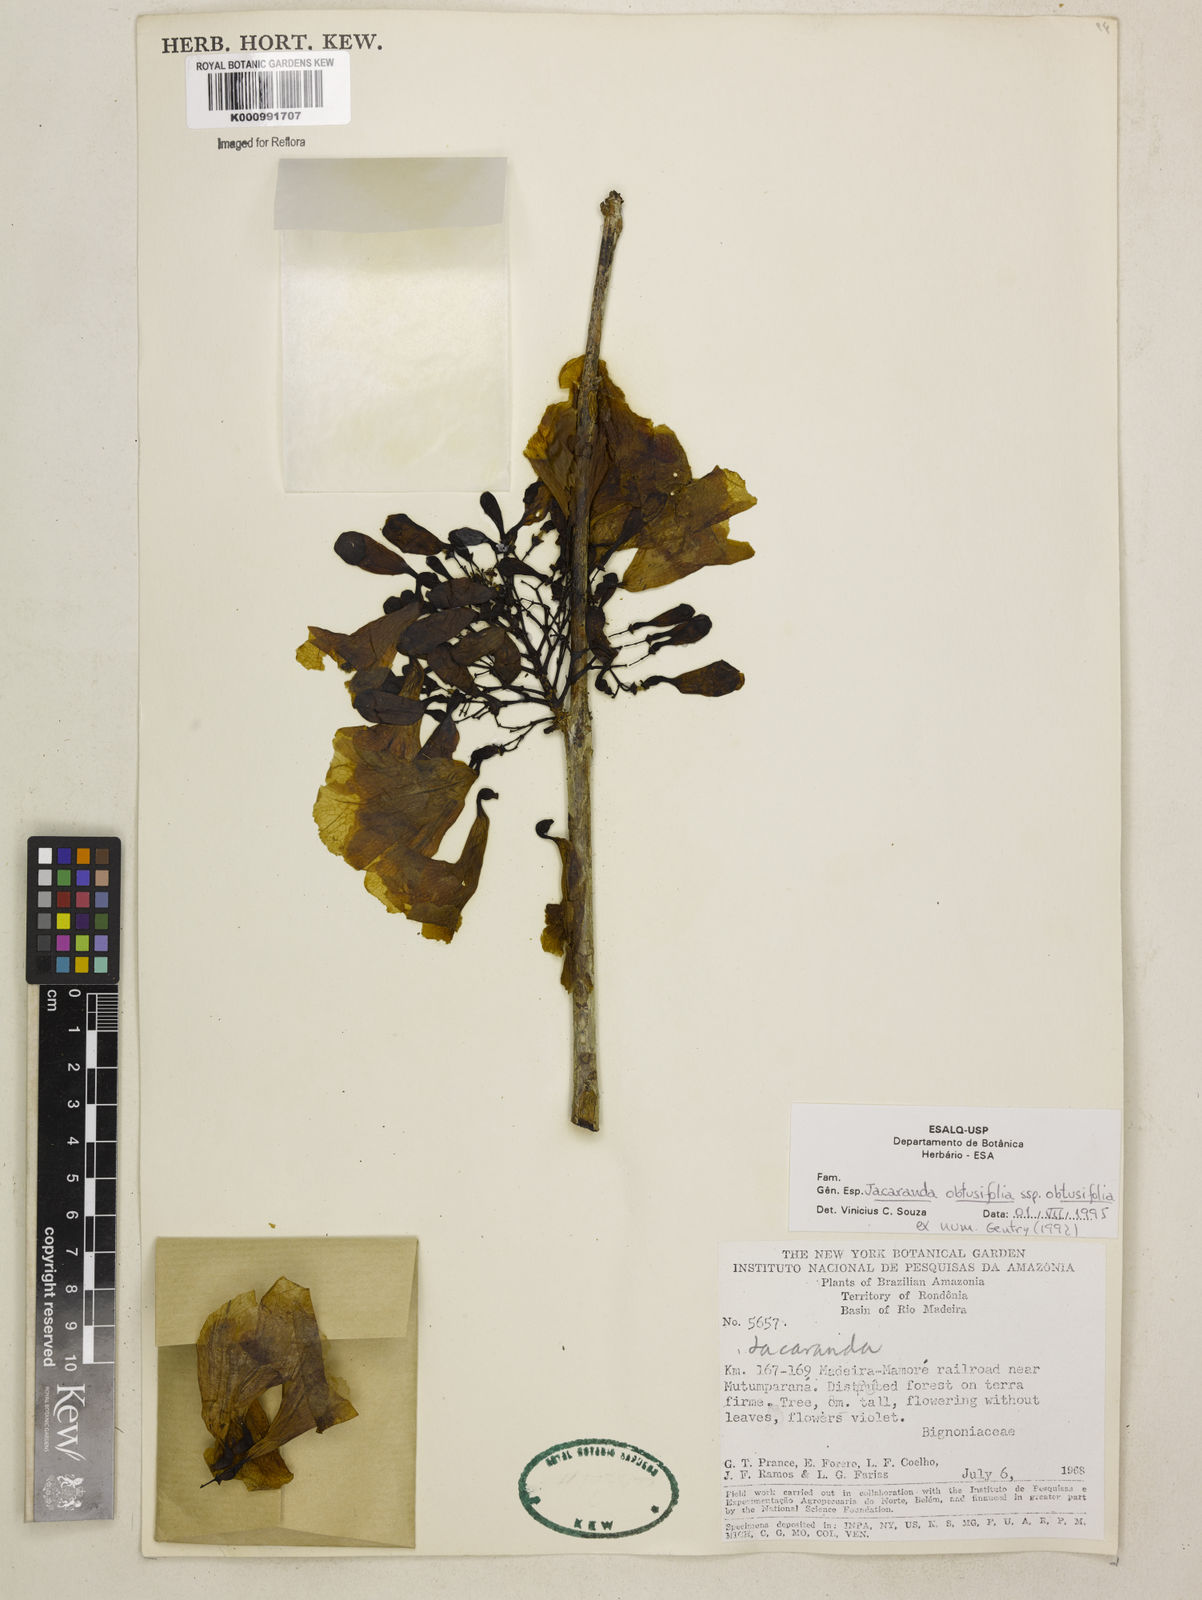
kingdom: Plantae
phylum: Tracheophyta
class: Magnoliopsida
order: Lamiales
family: Bignoniaceae
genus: Jacaranda
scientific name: Jacaranda obtusifolia
